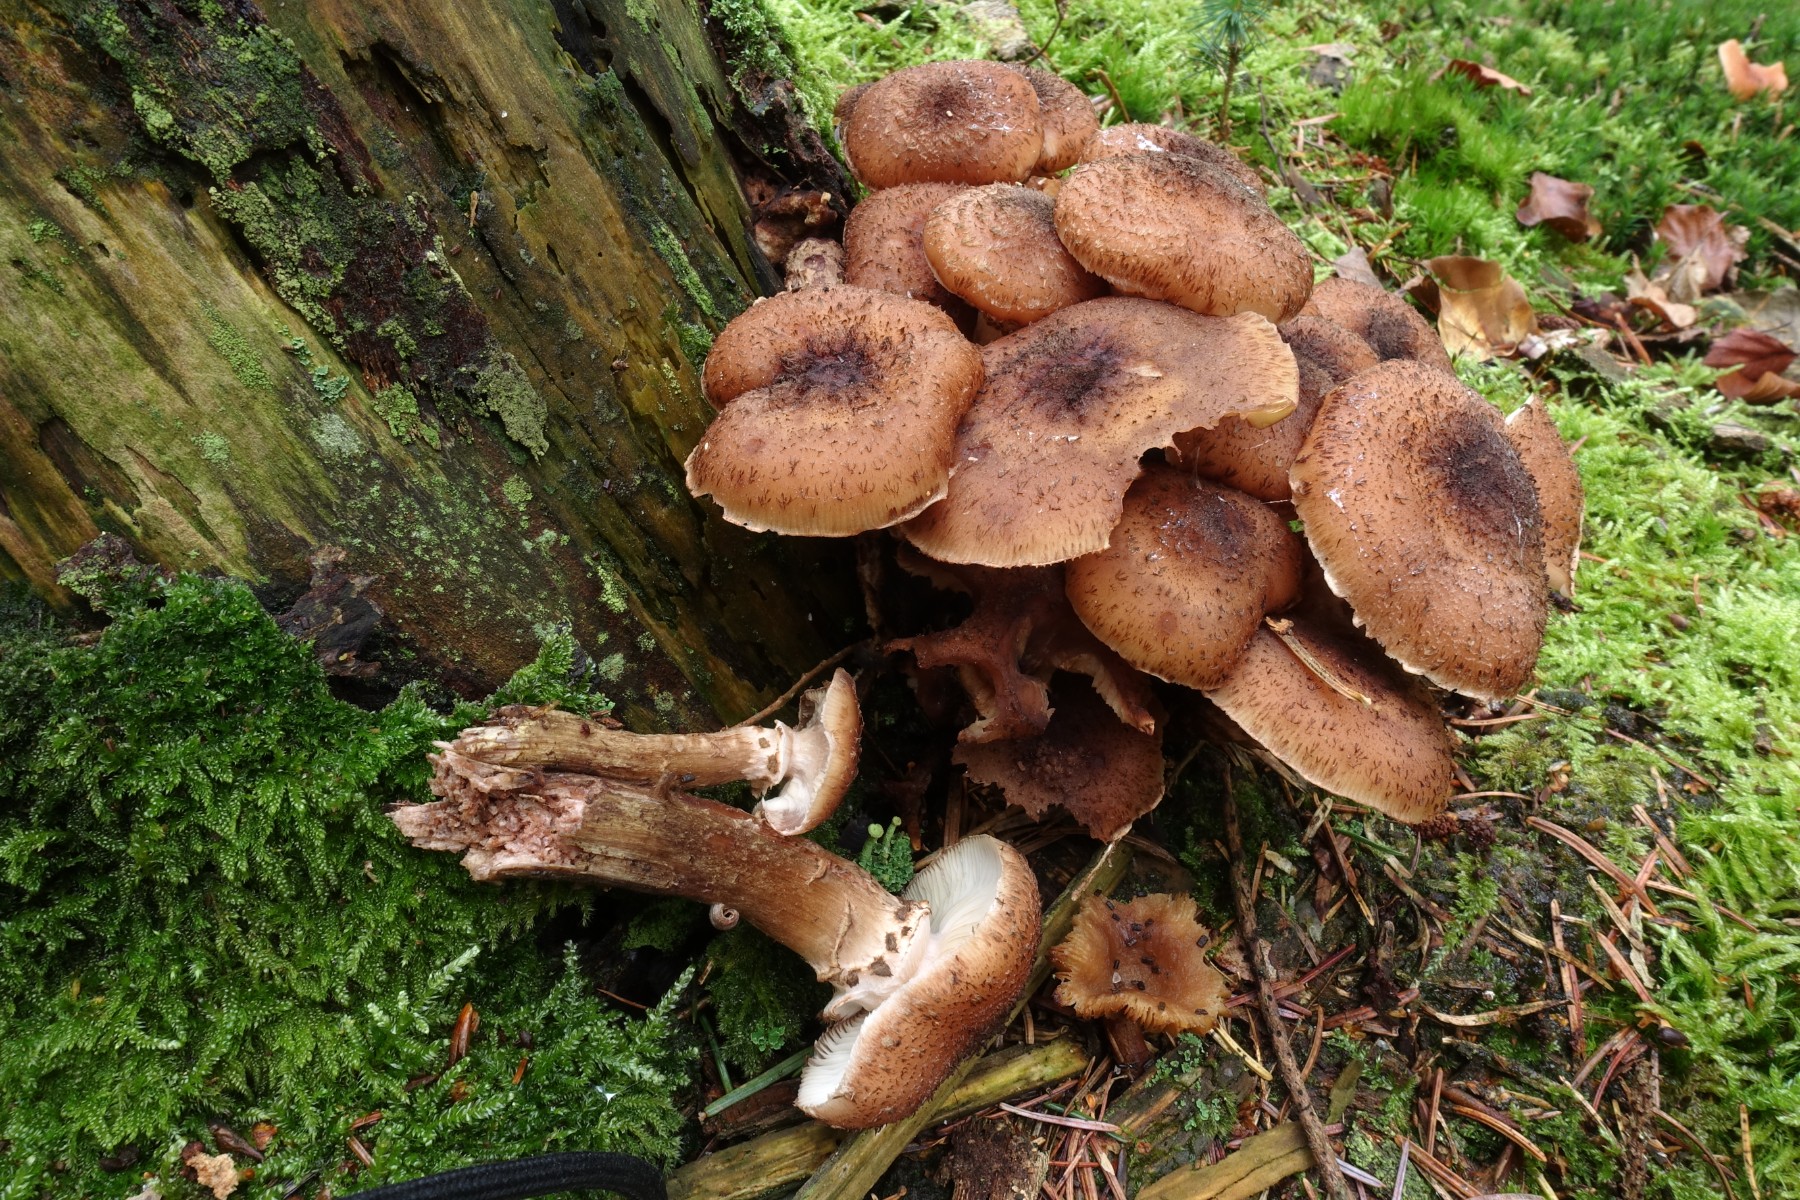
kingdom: Fungi
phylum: Basidiomycota
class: Agaricomycetes
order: Agaricales
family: Physalacriaceae
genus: Armillaria
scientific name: Armillaria ostoyae
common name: mørk honningsvamp
